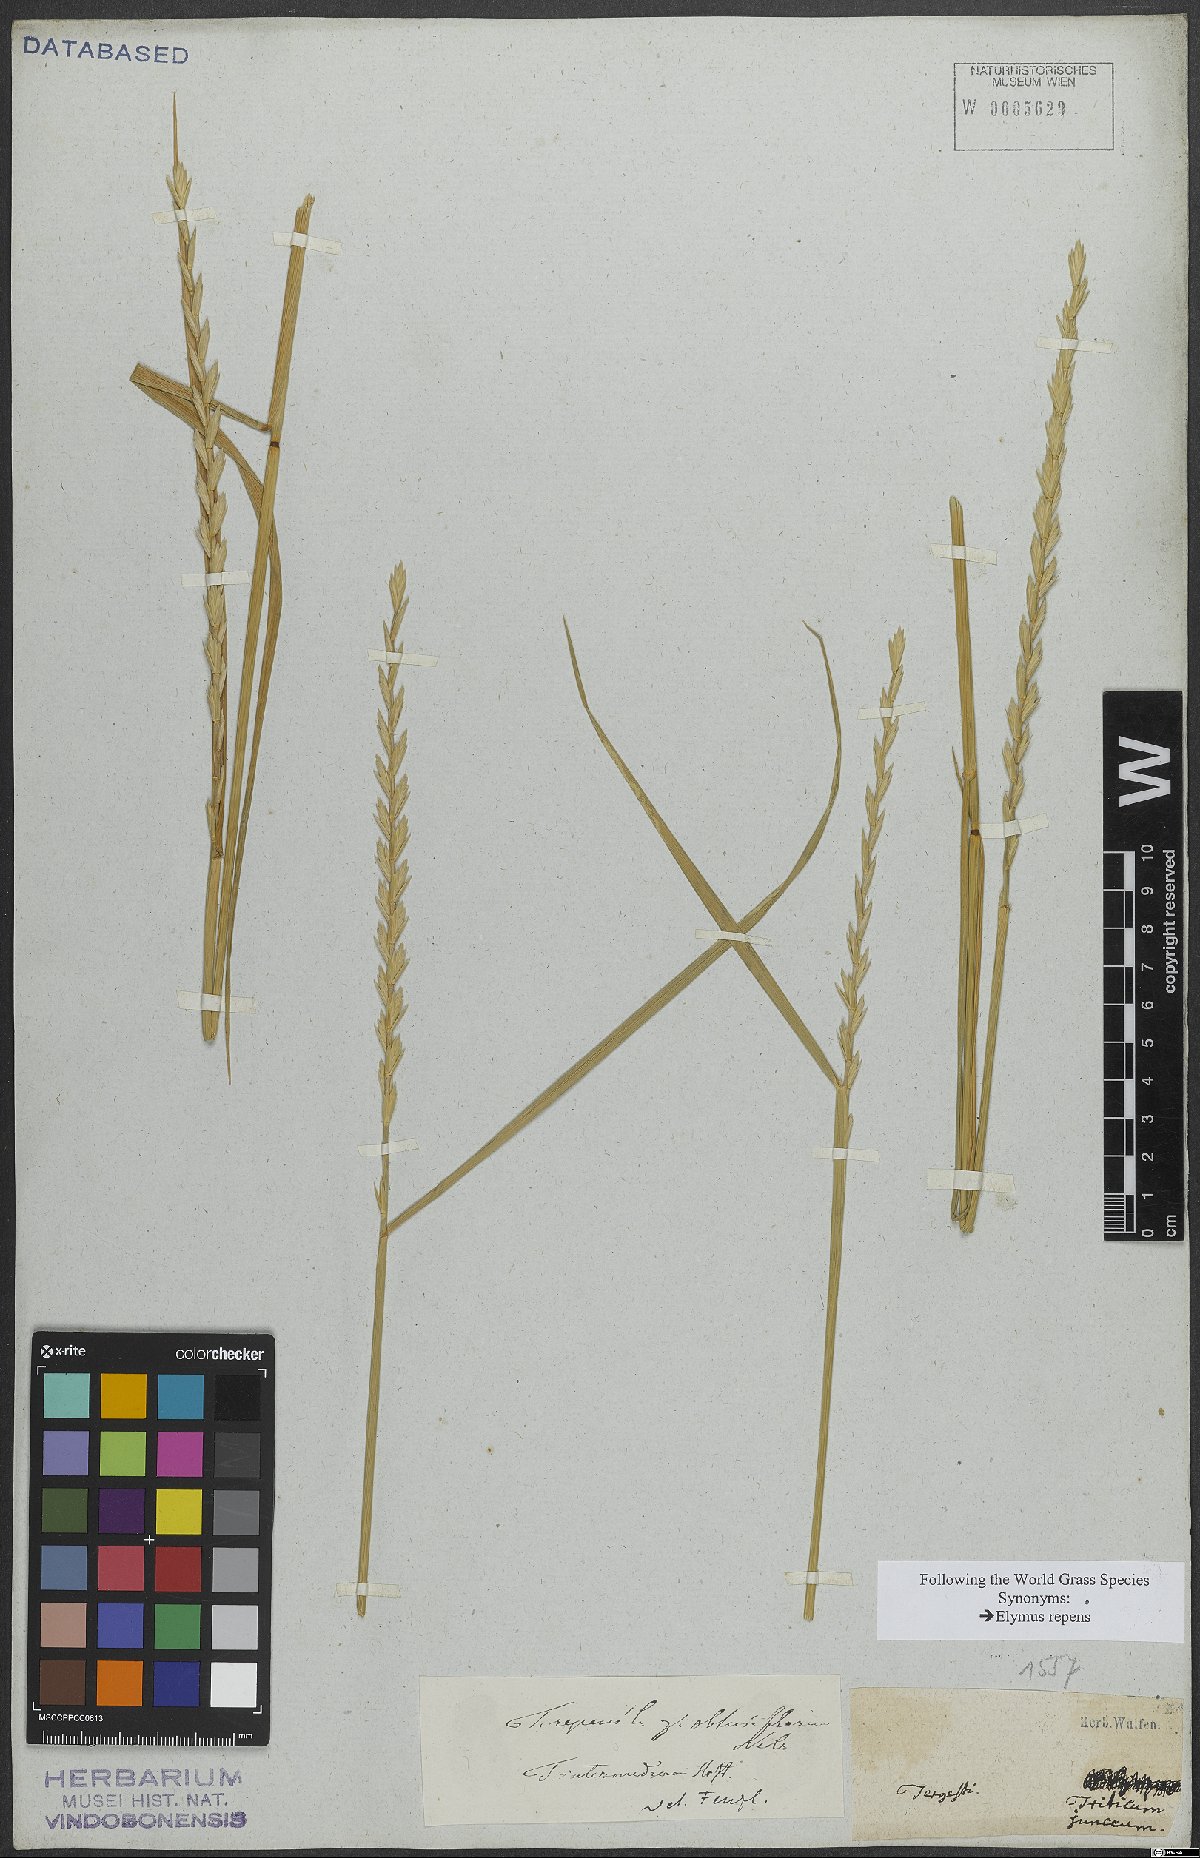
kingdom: Plantae
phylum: Tracheophyta
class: Liliopsida
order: Poales
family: Poaceae
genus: Elymus
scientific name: Elymus repens
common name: Quackgrass
